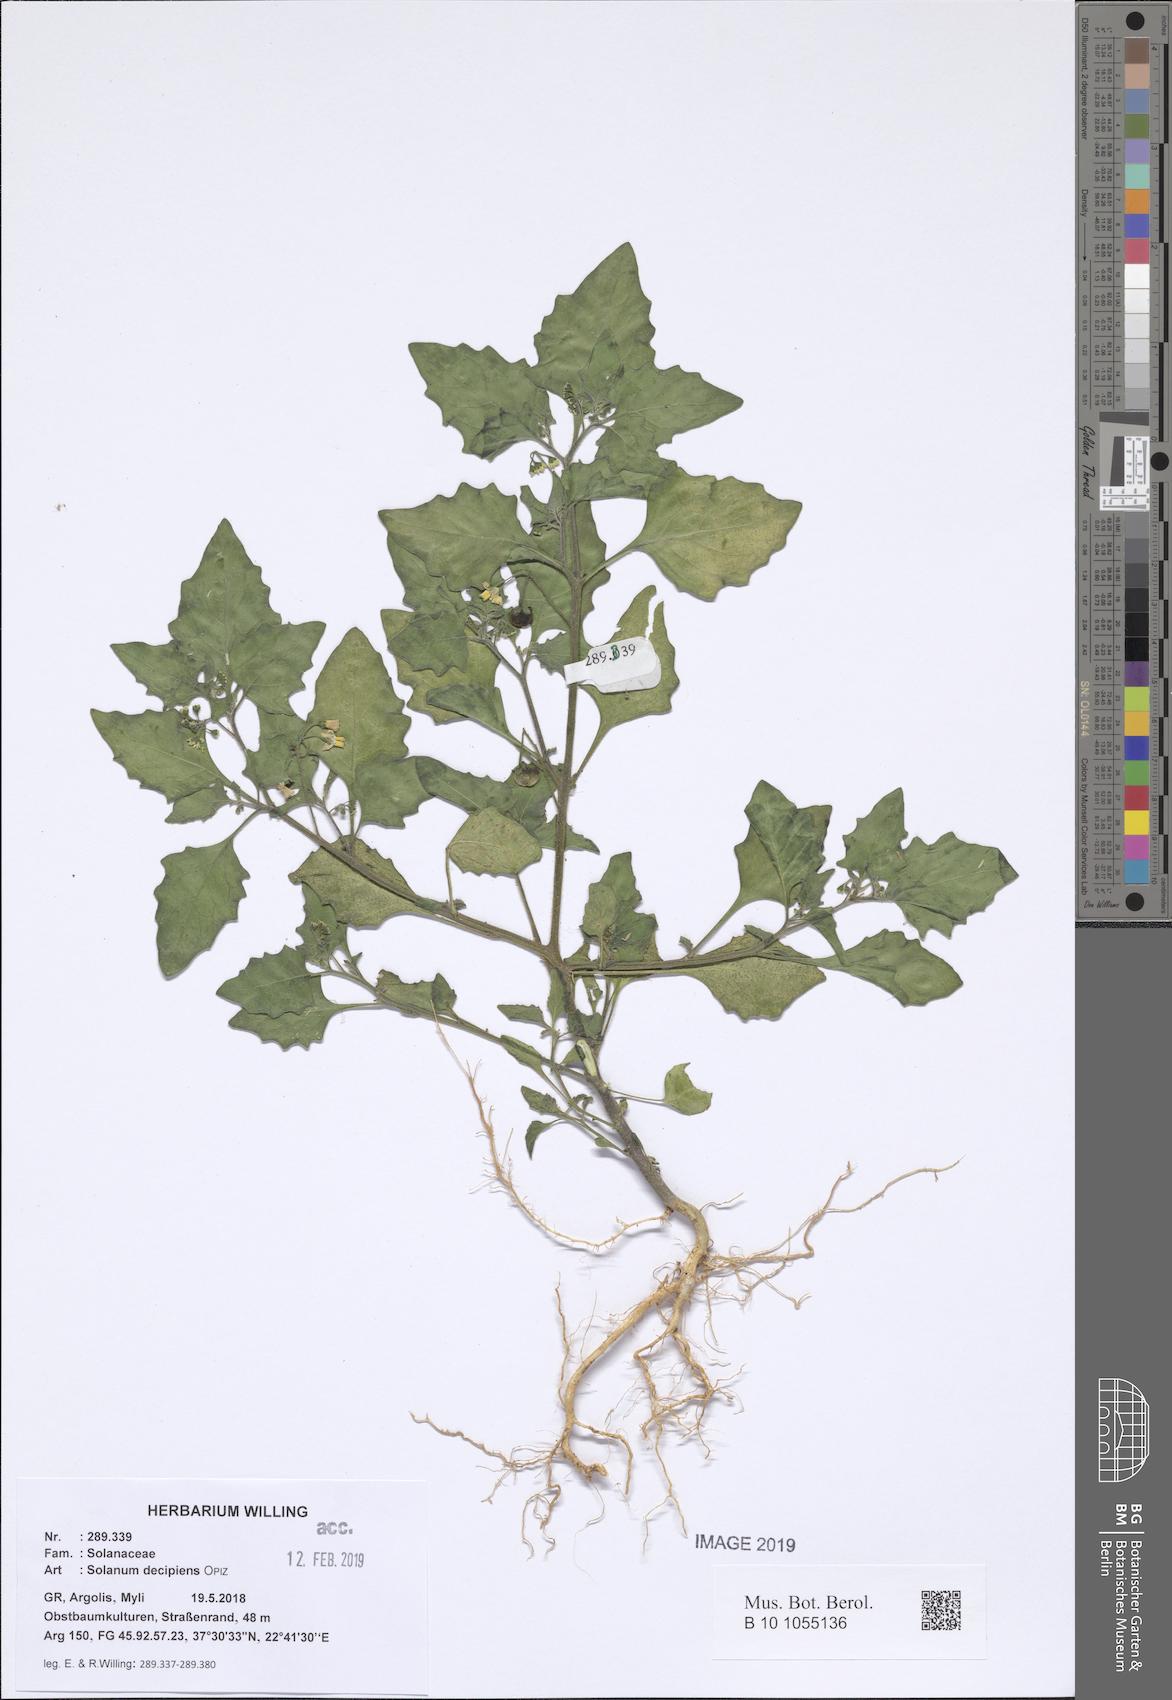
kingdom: Plantae
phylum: Tracheophyta
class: Magnoliopsida
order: Solanales
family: Solanaceae
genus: Solanum
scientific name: Solanum decipiens
